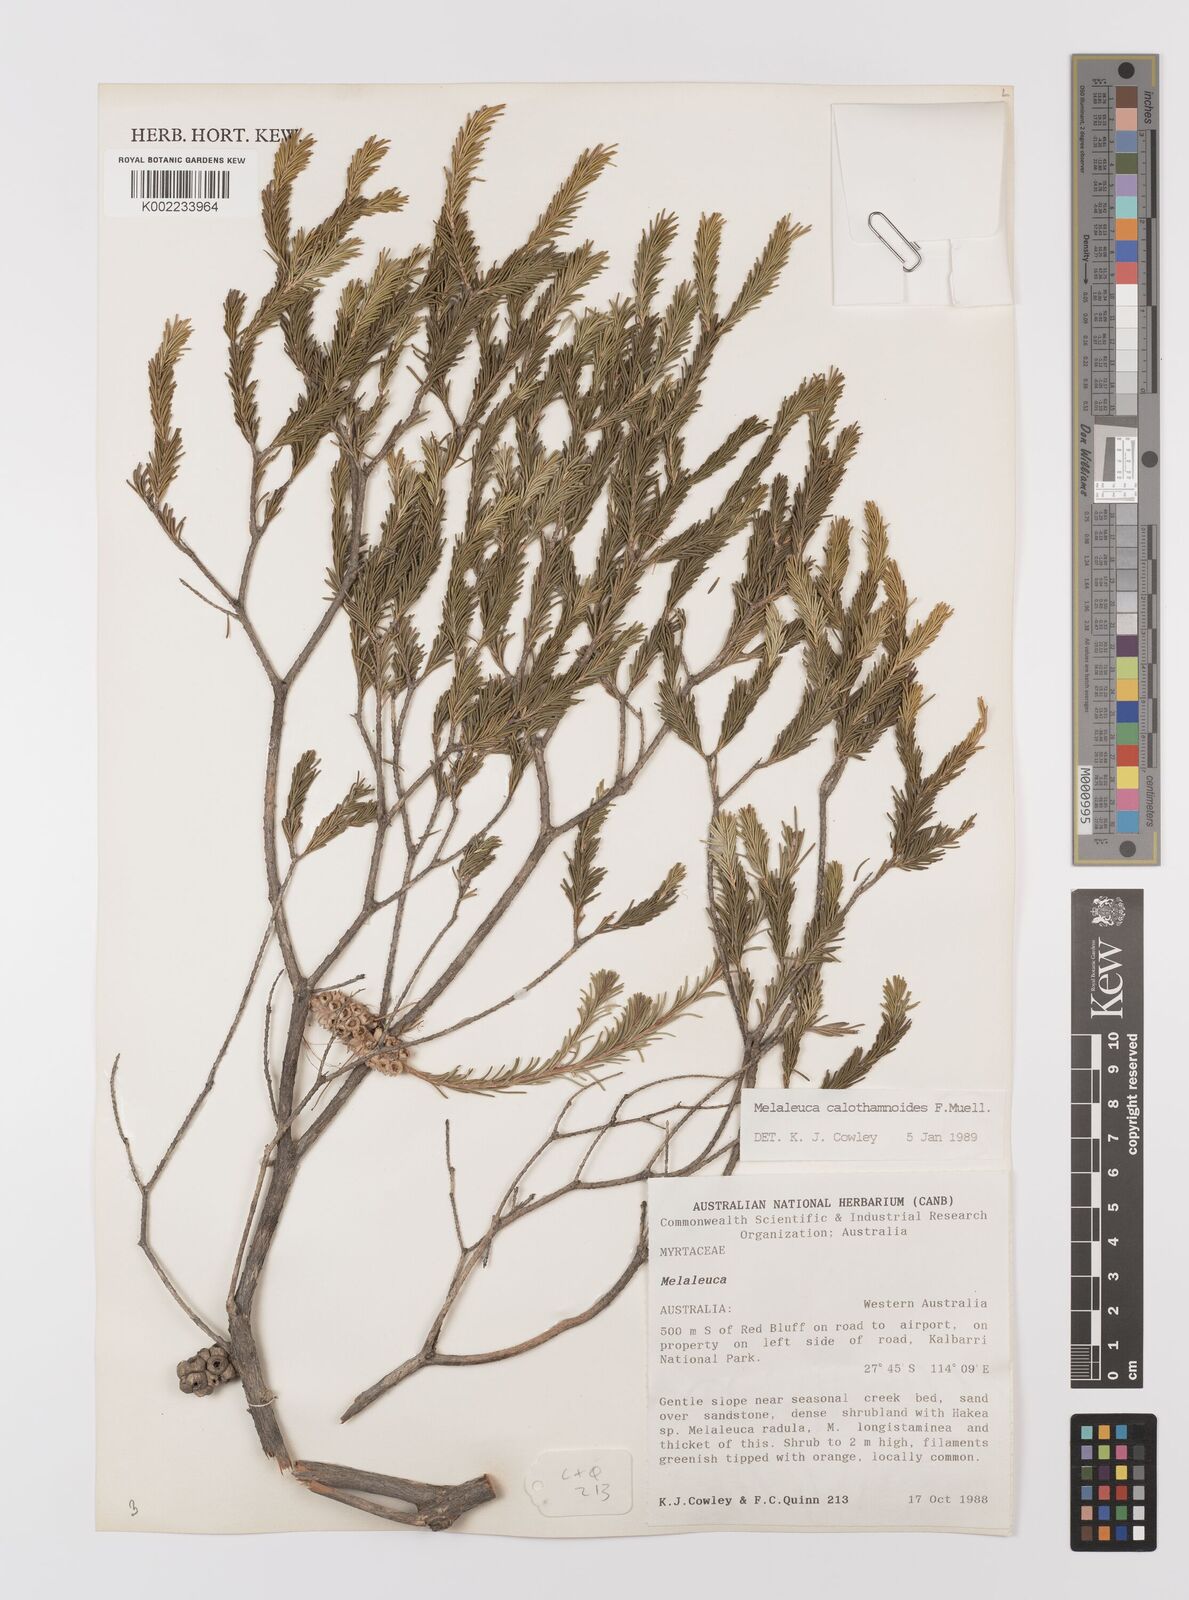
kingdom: Plantae
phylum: Tracheophyta
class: Magnoliopsida
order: Myrtales
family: Myrtaceae
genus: Melaleuca
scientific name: Melaleuca calothamnoides
